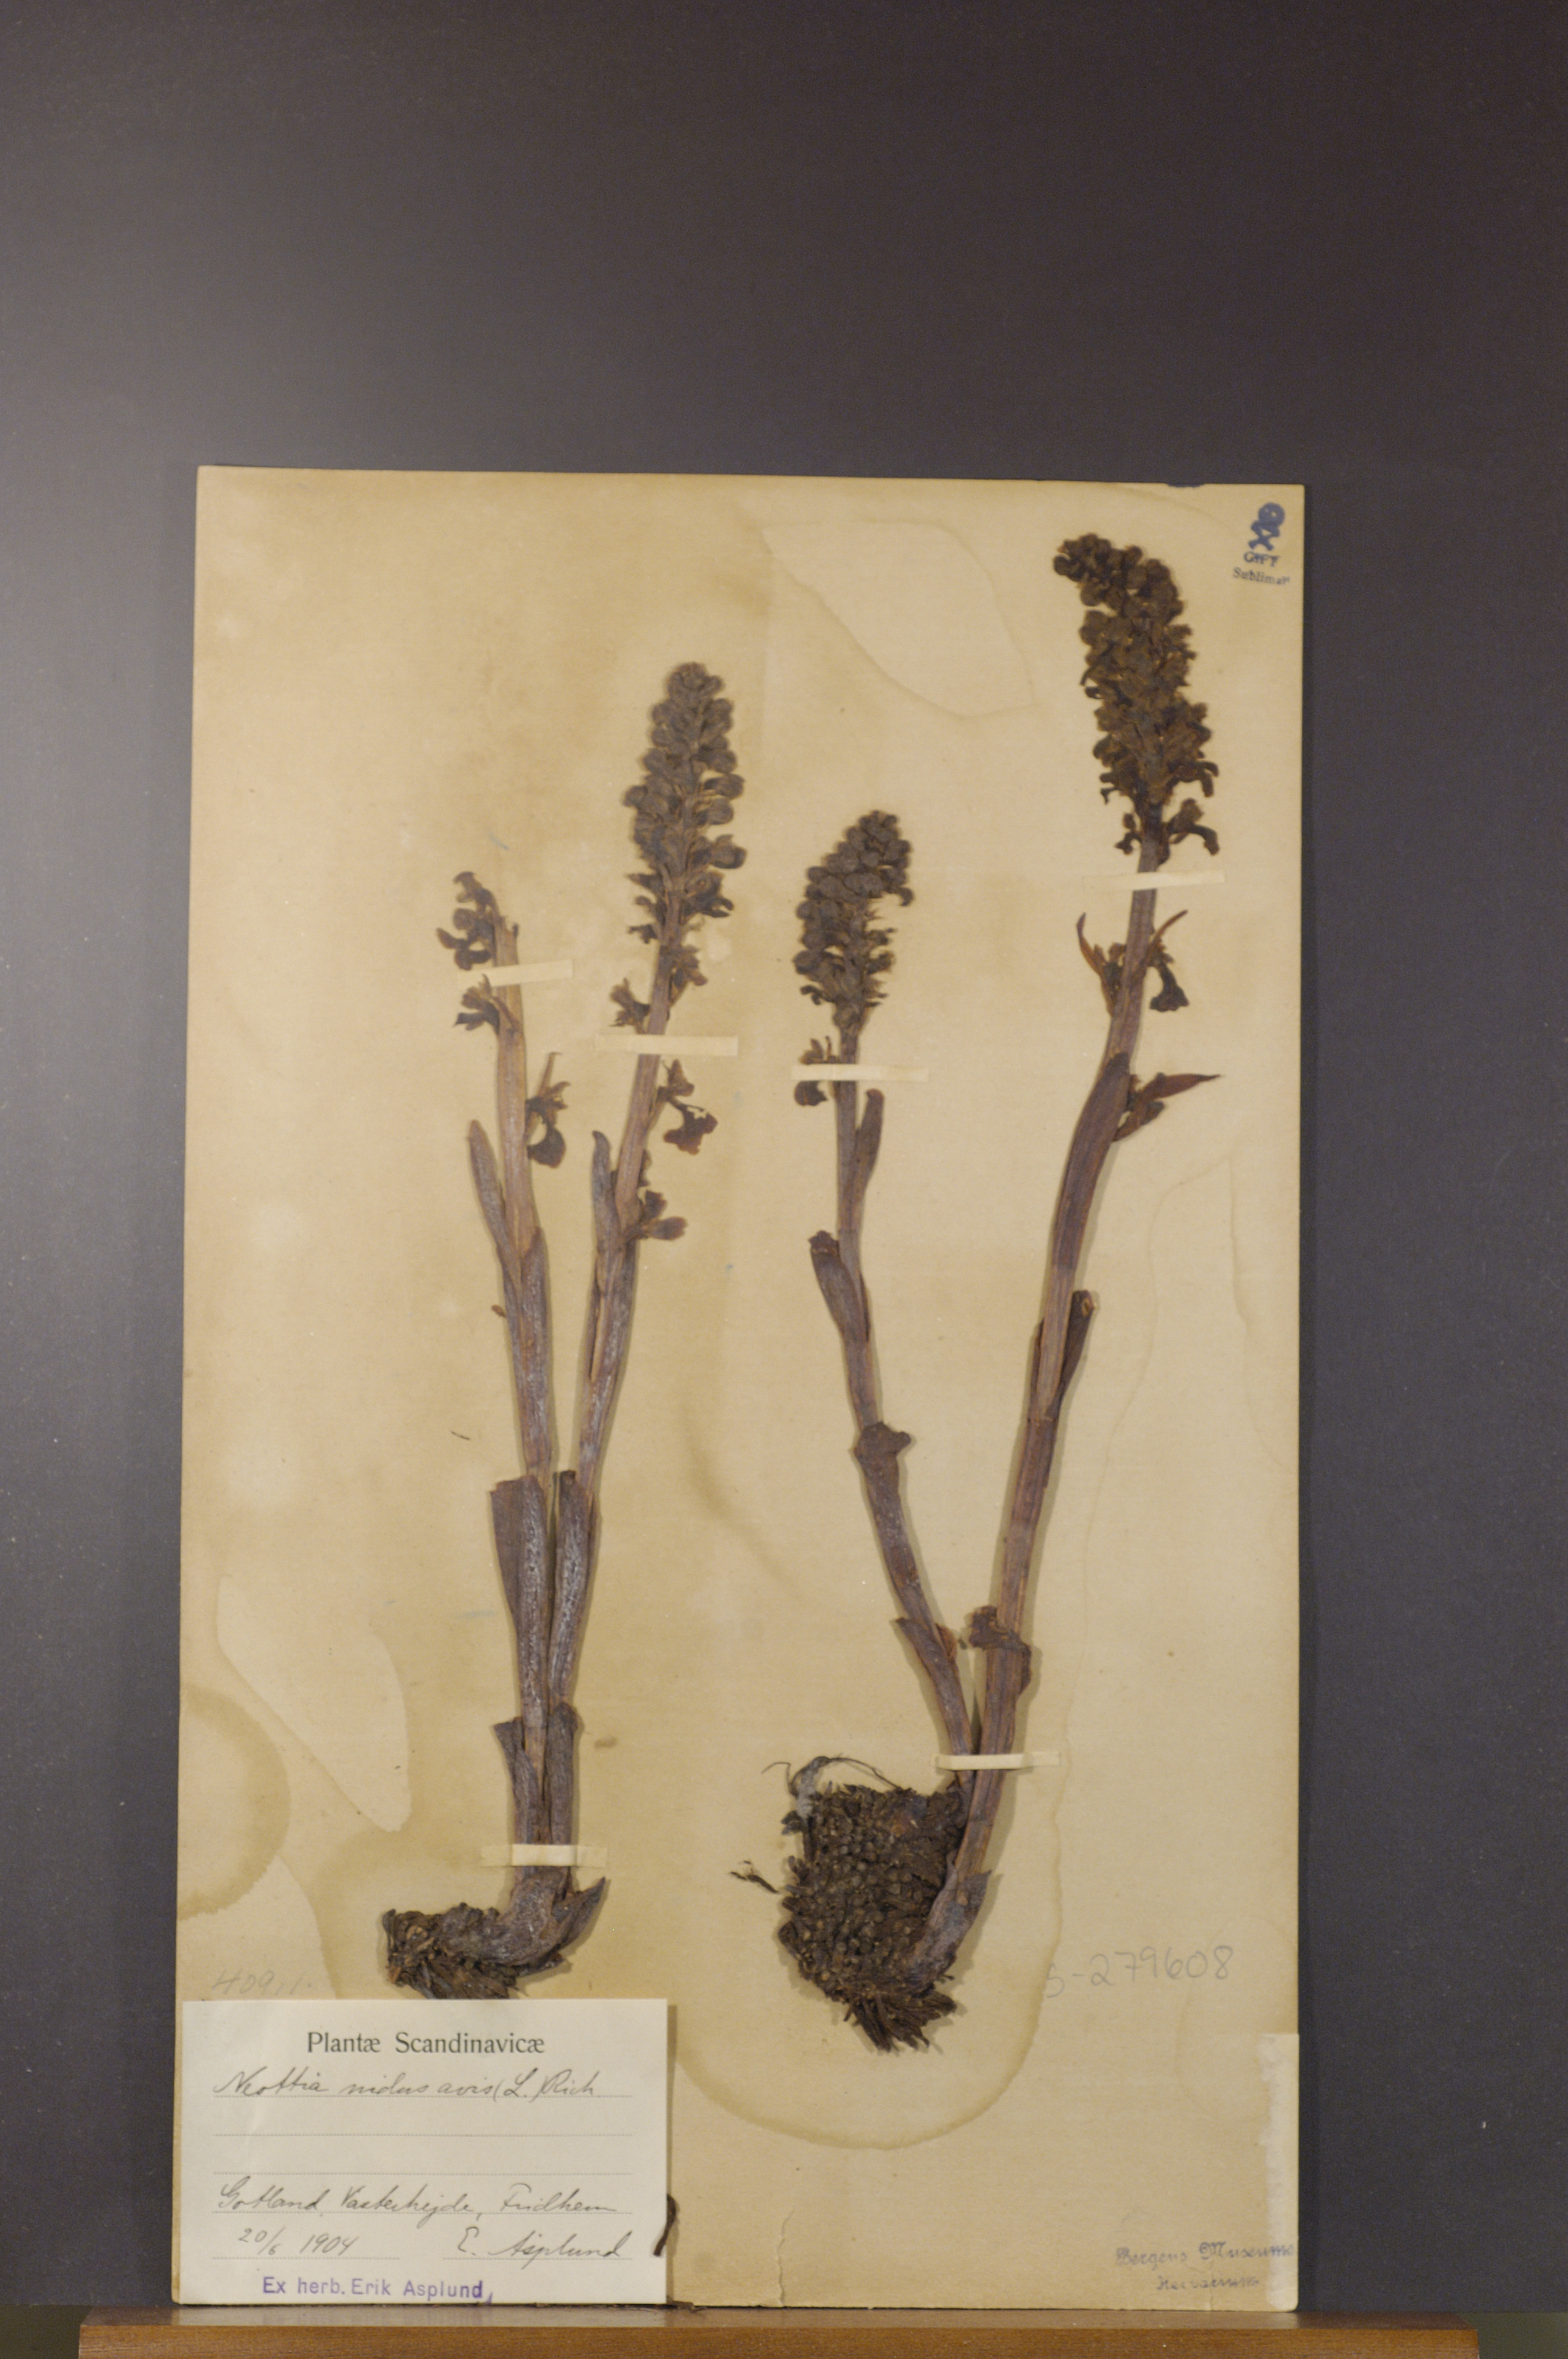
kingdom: Plantae
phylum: Tracheophyta
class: Liliopsida
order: Asparagales
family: Orchidaceae
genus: Neottia
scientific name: Neottia nidus-avis
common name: Bird's-nest orchid
